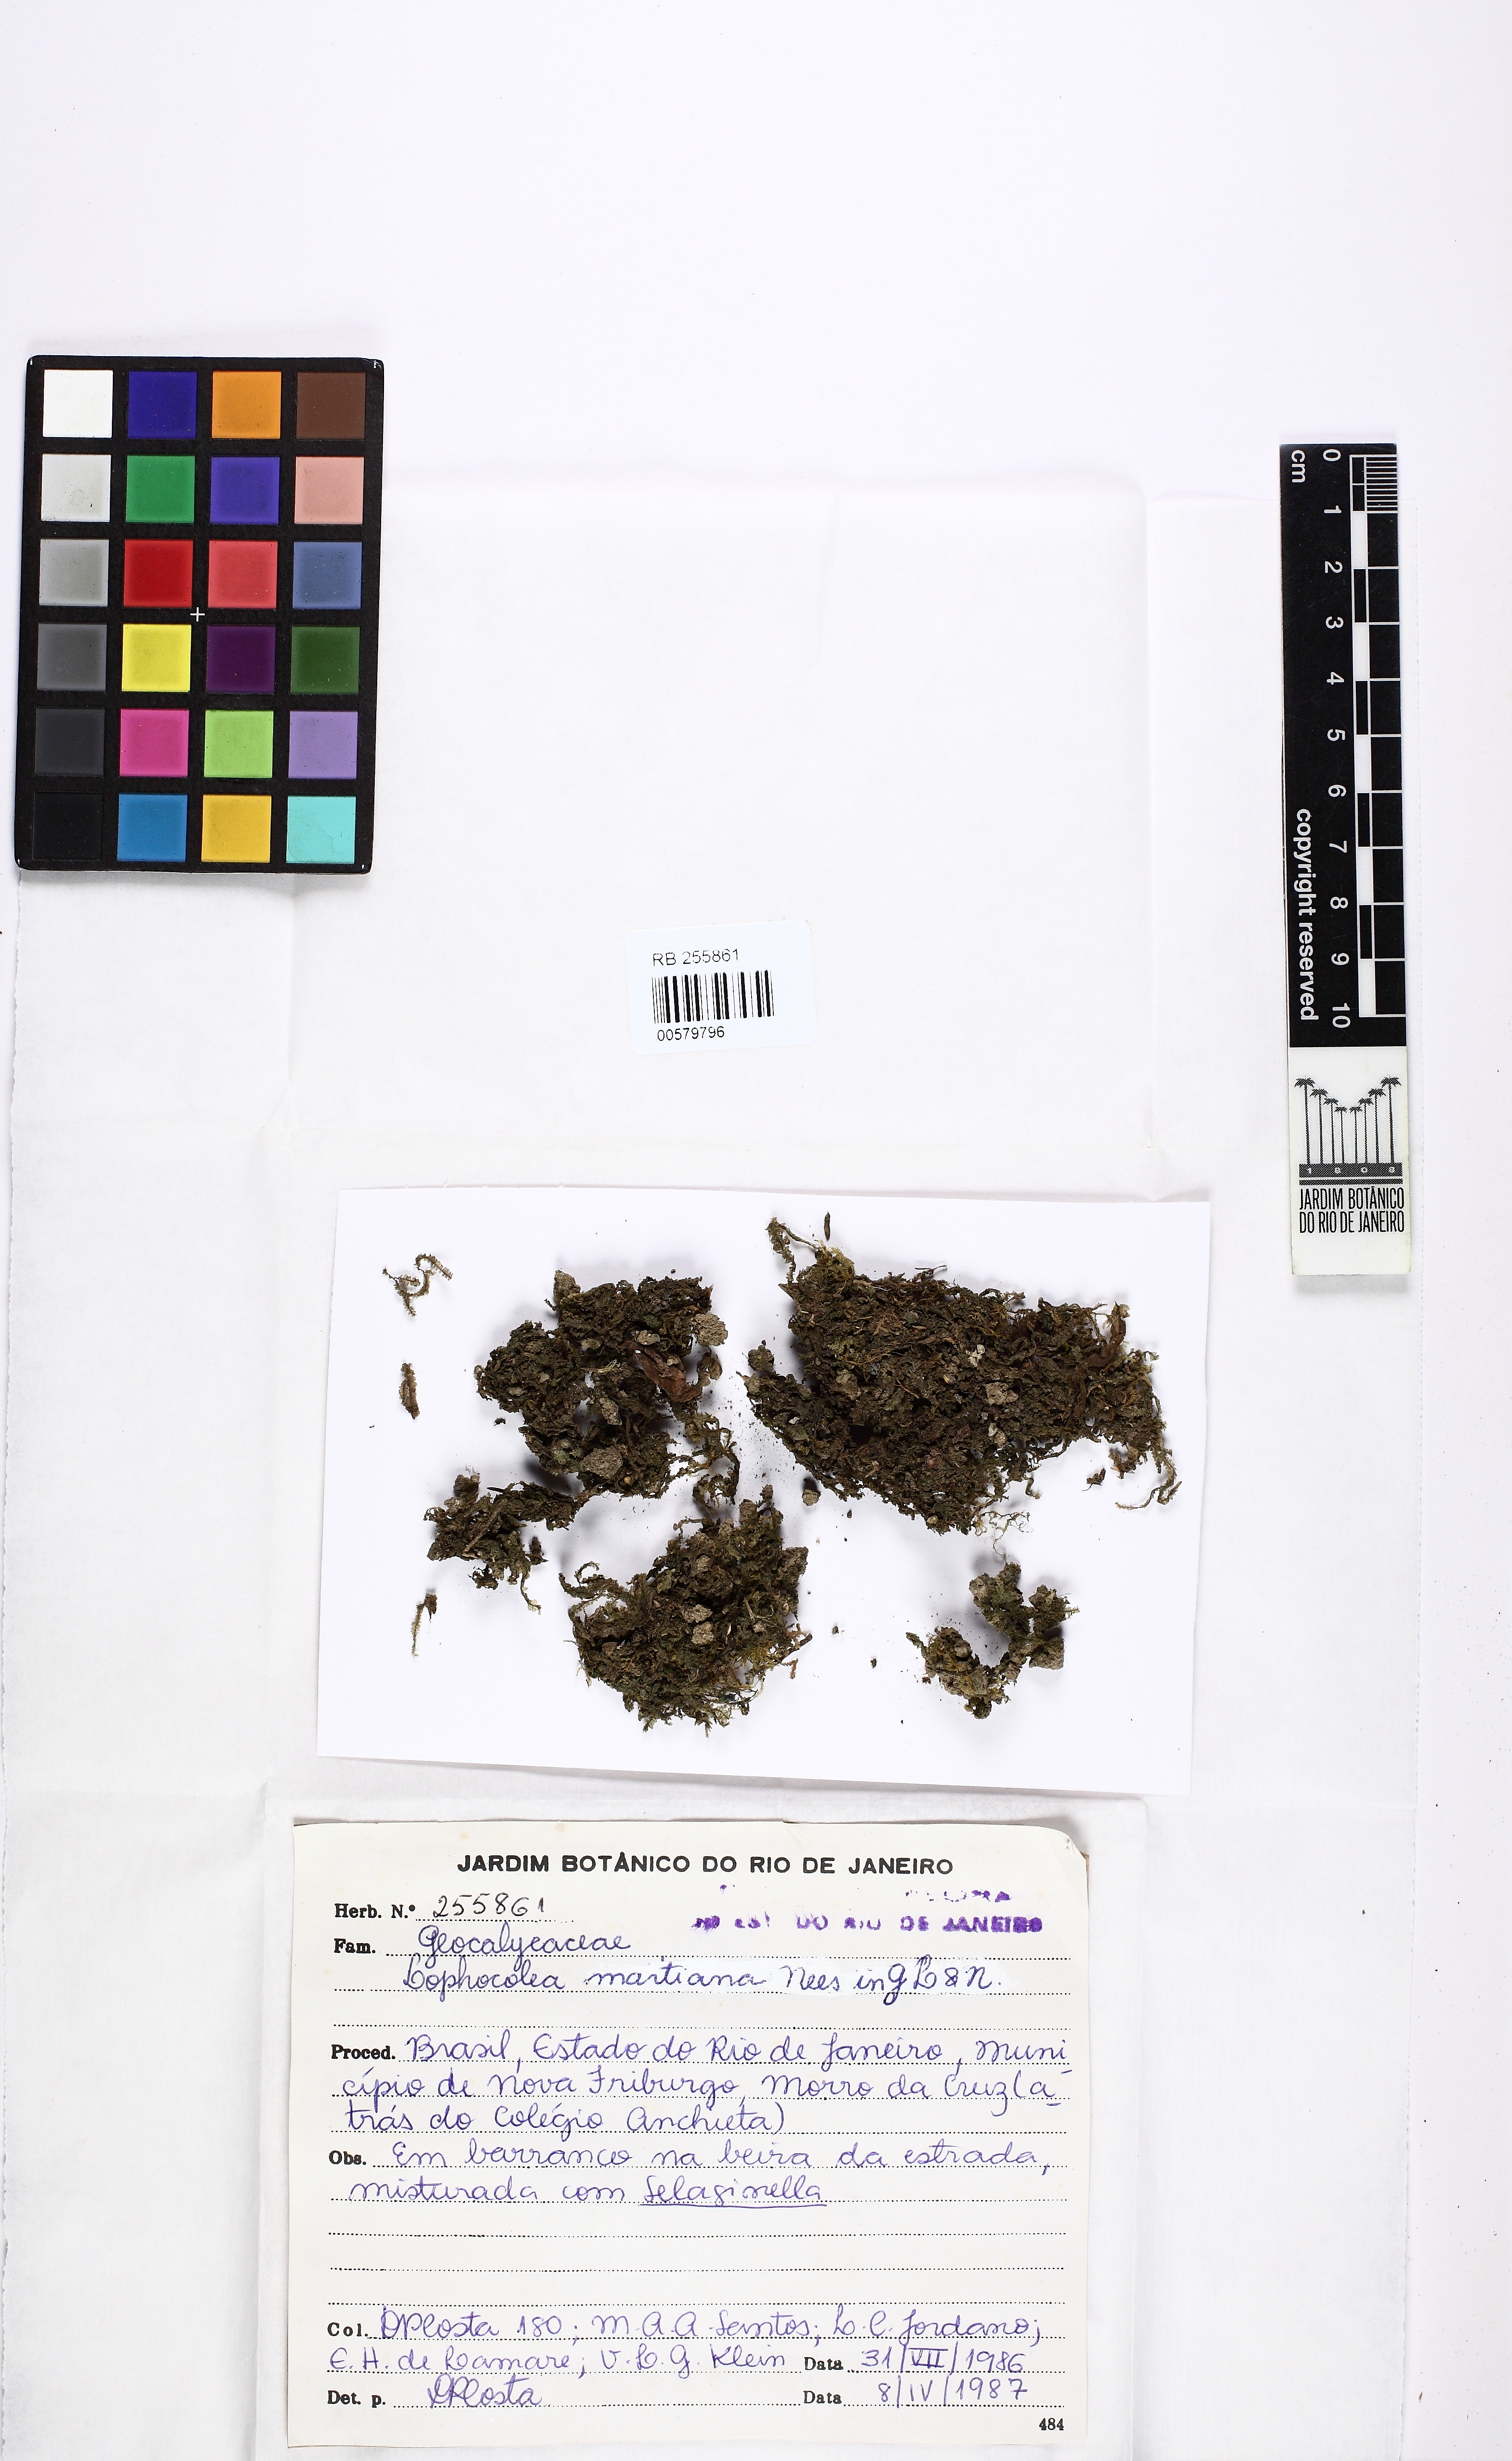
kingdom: Plantae
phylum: Marchantiophyta
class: Jungermanniopsida
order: Jungermanniales
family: Lophocoleaceae
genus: Cryptolophocolea
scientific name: Cryptolophocolea martiana
